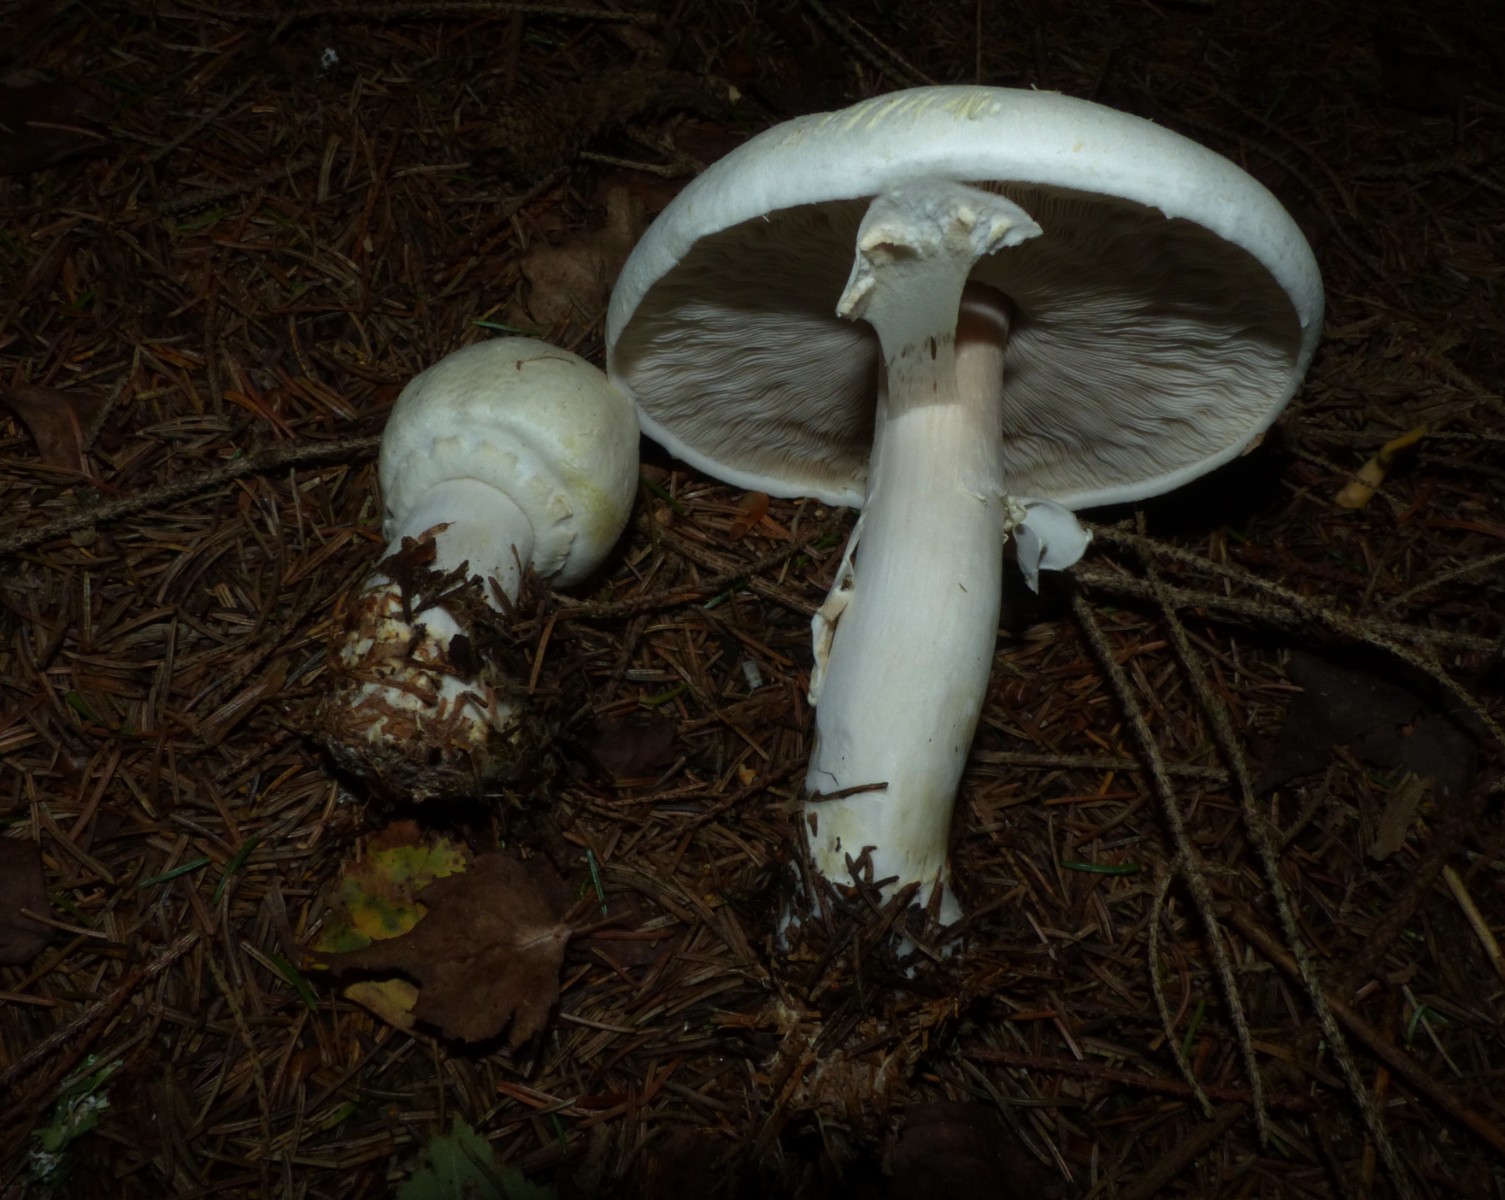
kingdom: Fungi
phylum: Basidiomycota
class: Agaricomycetes
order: Agaricales
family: Agaricaceae
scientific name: Agaricaceae
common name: champignonfamilien
